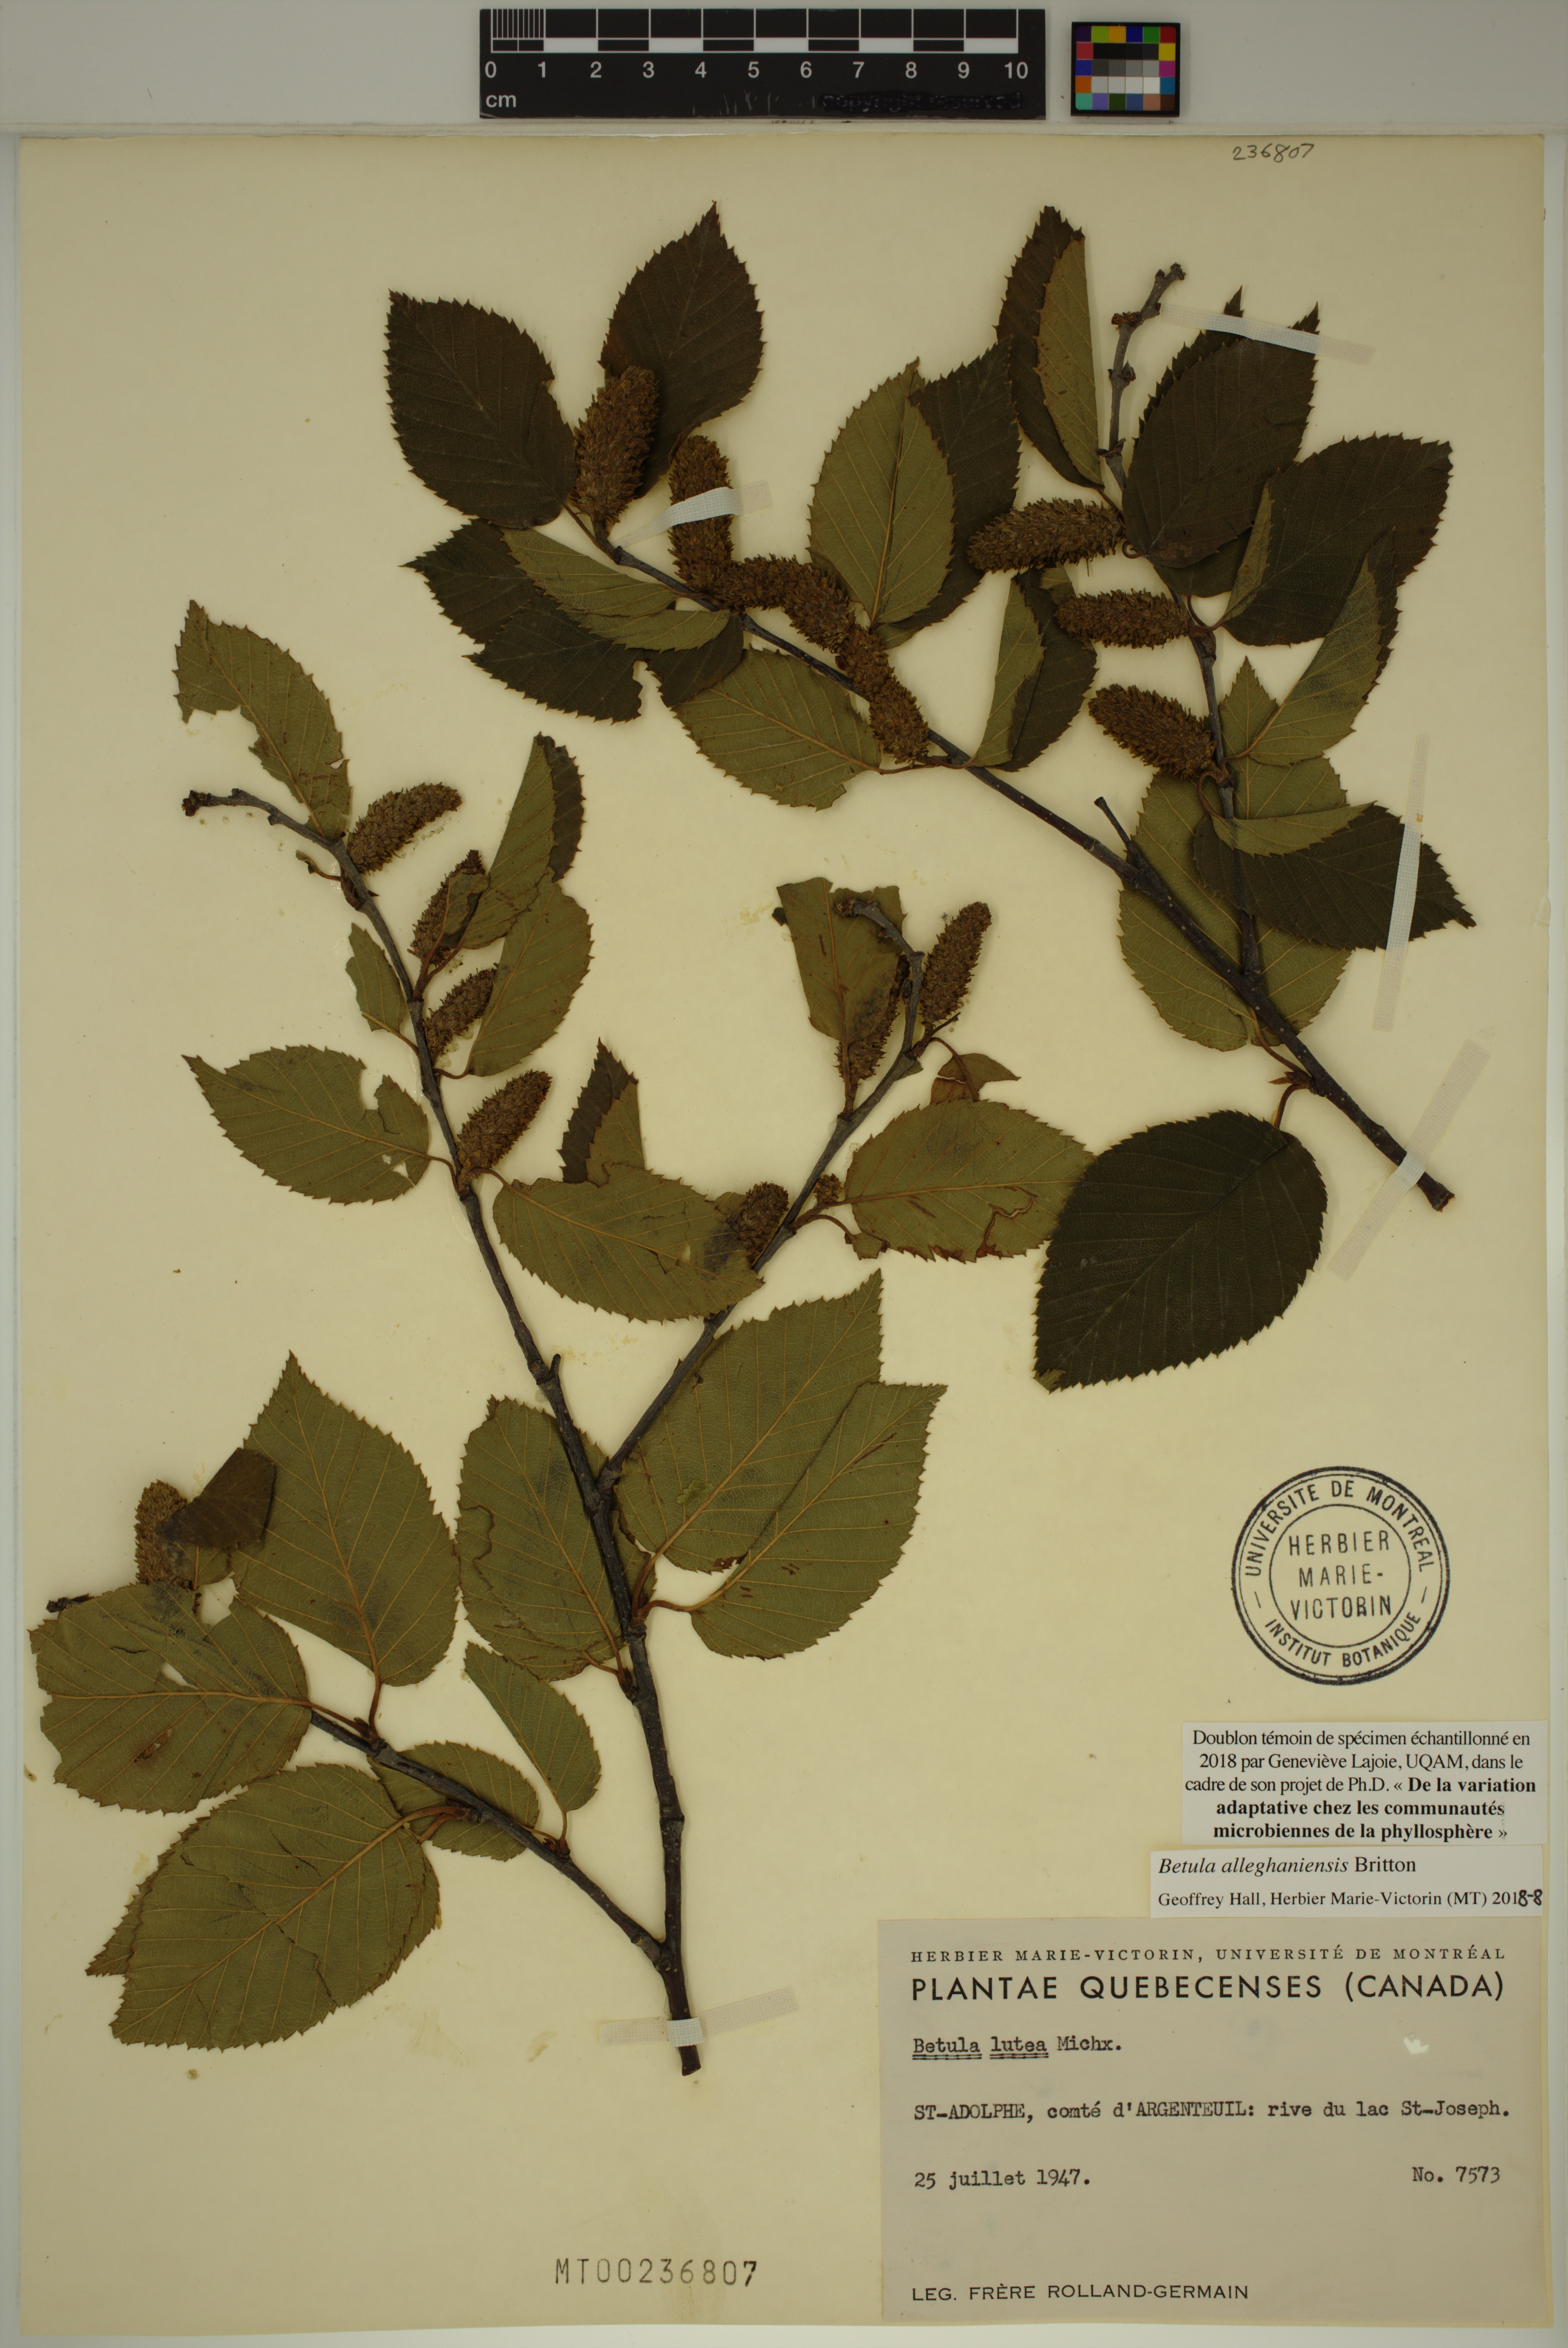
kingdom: Plantae
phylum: Tracheophyta
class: Magnoliopsida
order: Fagales
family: Betulaceae
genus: Betula
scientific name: Betula alleghaniensis
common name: Yellow birch
